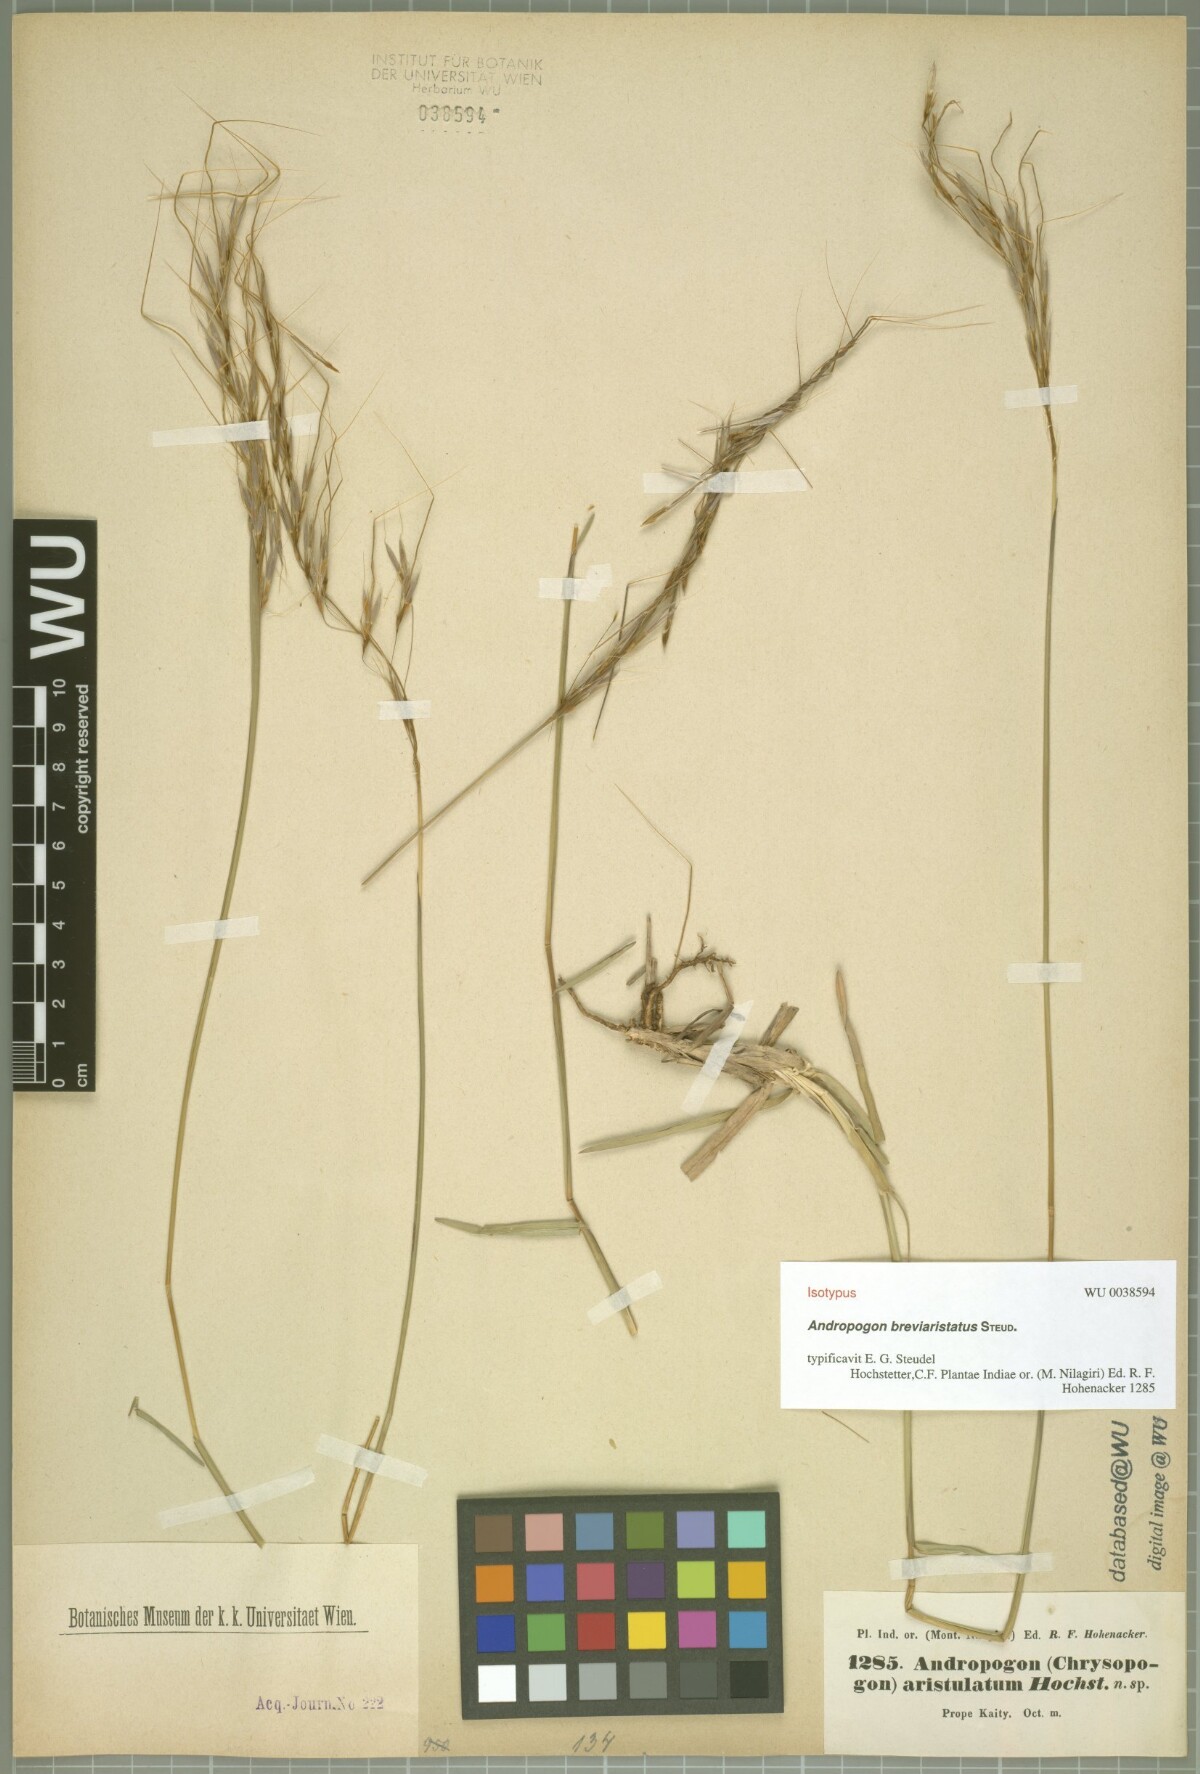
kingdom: Plantae
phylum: Tracheophyta
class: Liliopsida
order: Poales
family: Poaceae
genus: Chrysopogon
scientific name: Chrysopogon orientalis
